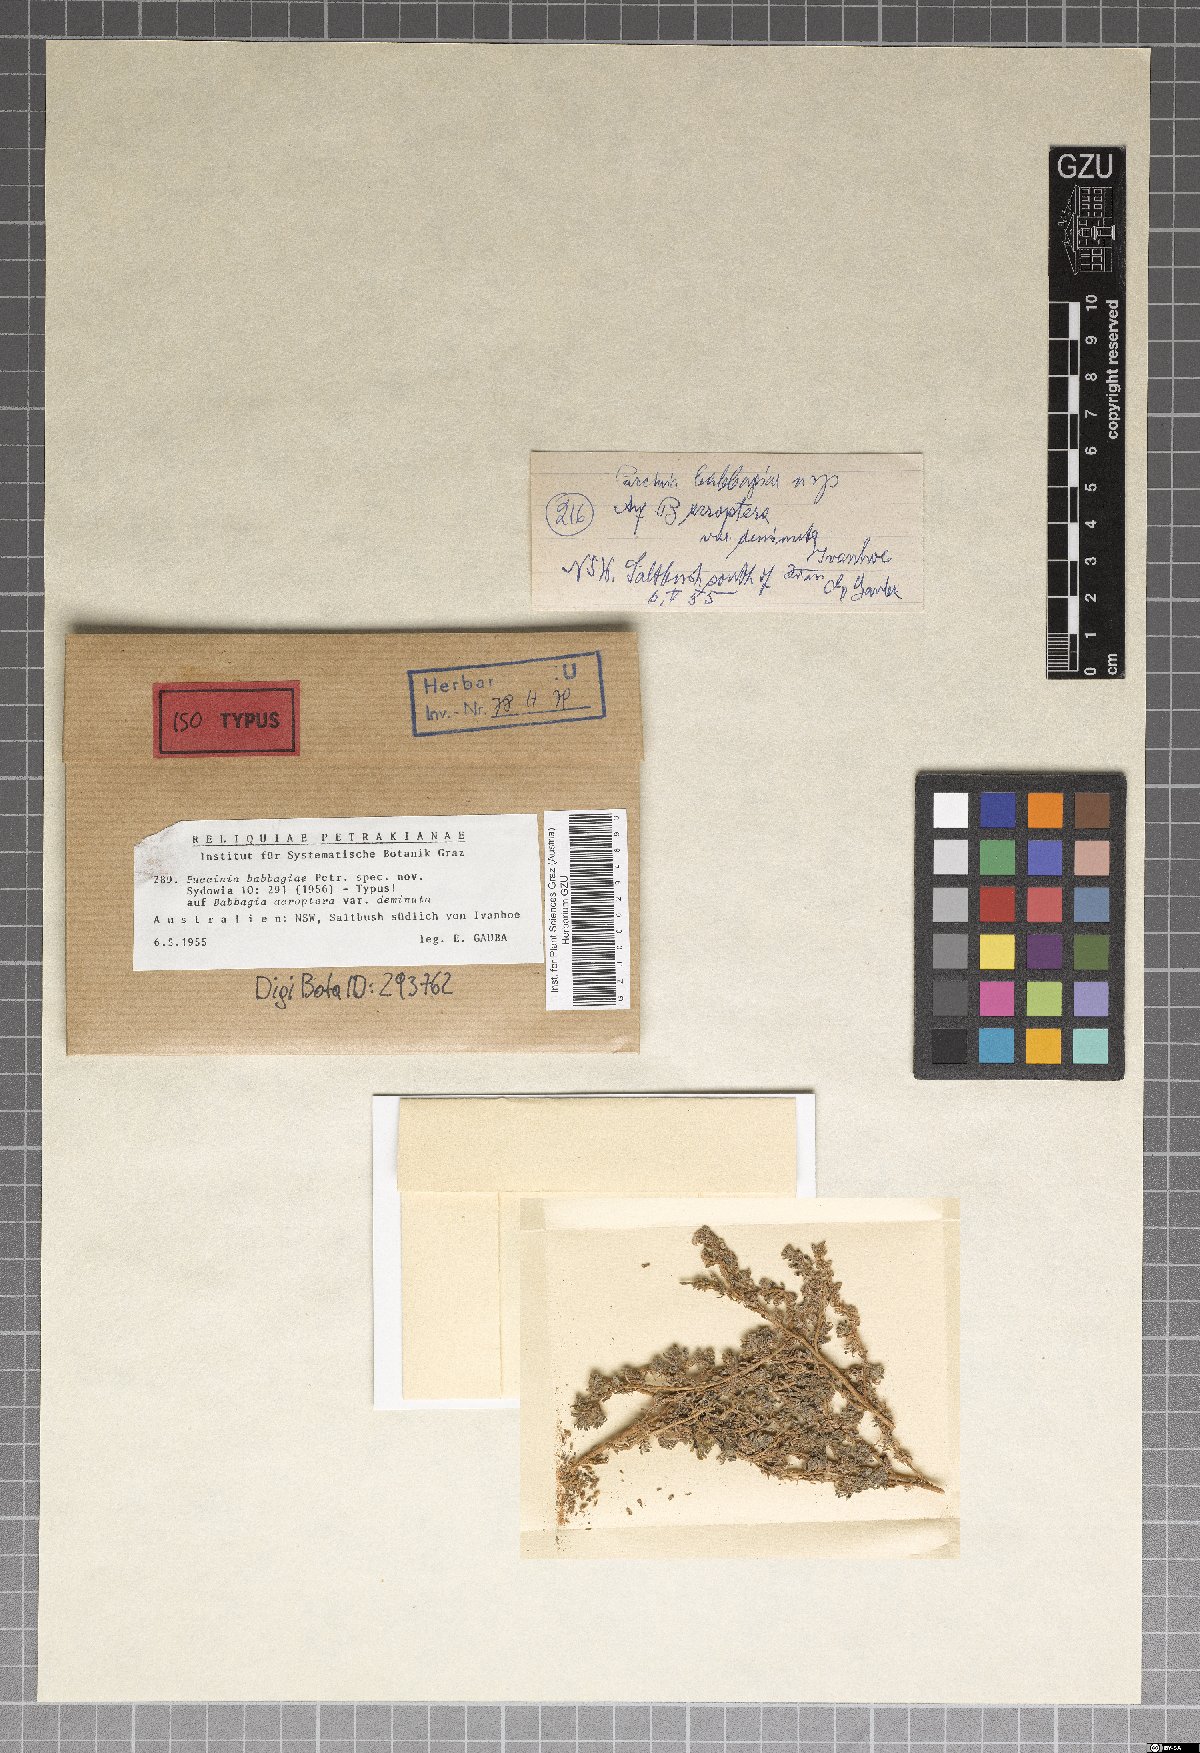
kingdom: Fungi
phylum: Basidiomycota
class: Pucciniomycetes
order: Pucciniales
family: Pucciniaceae
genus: Puccinia
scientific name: Puccinia babbagiae
